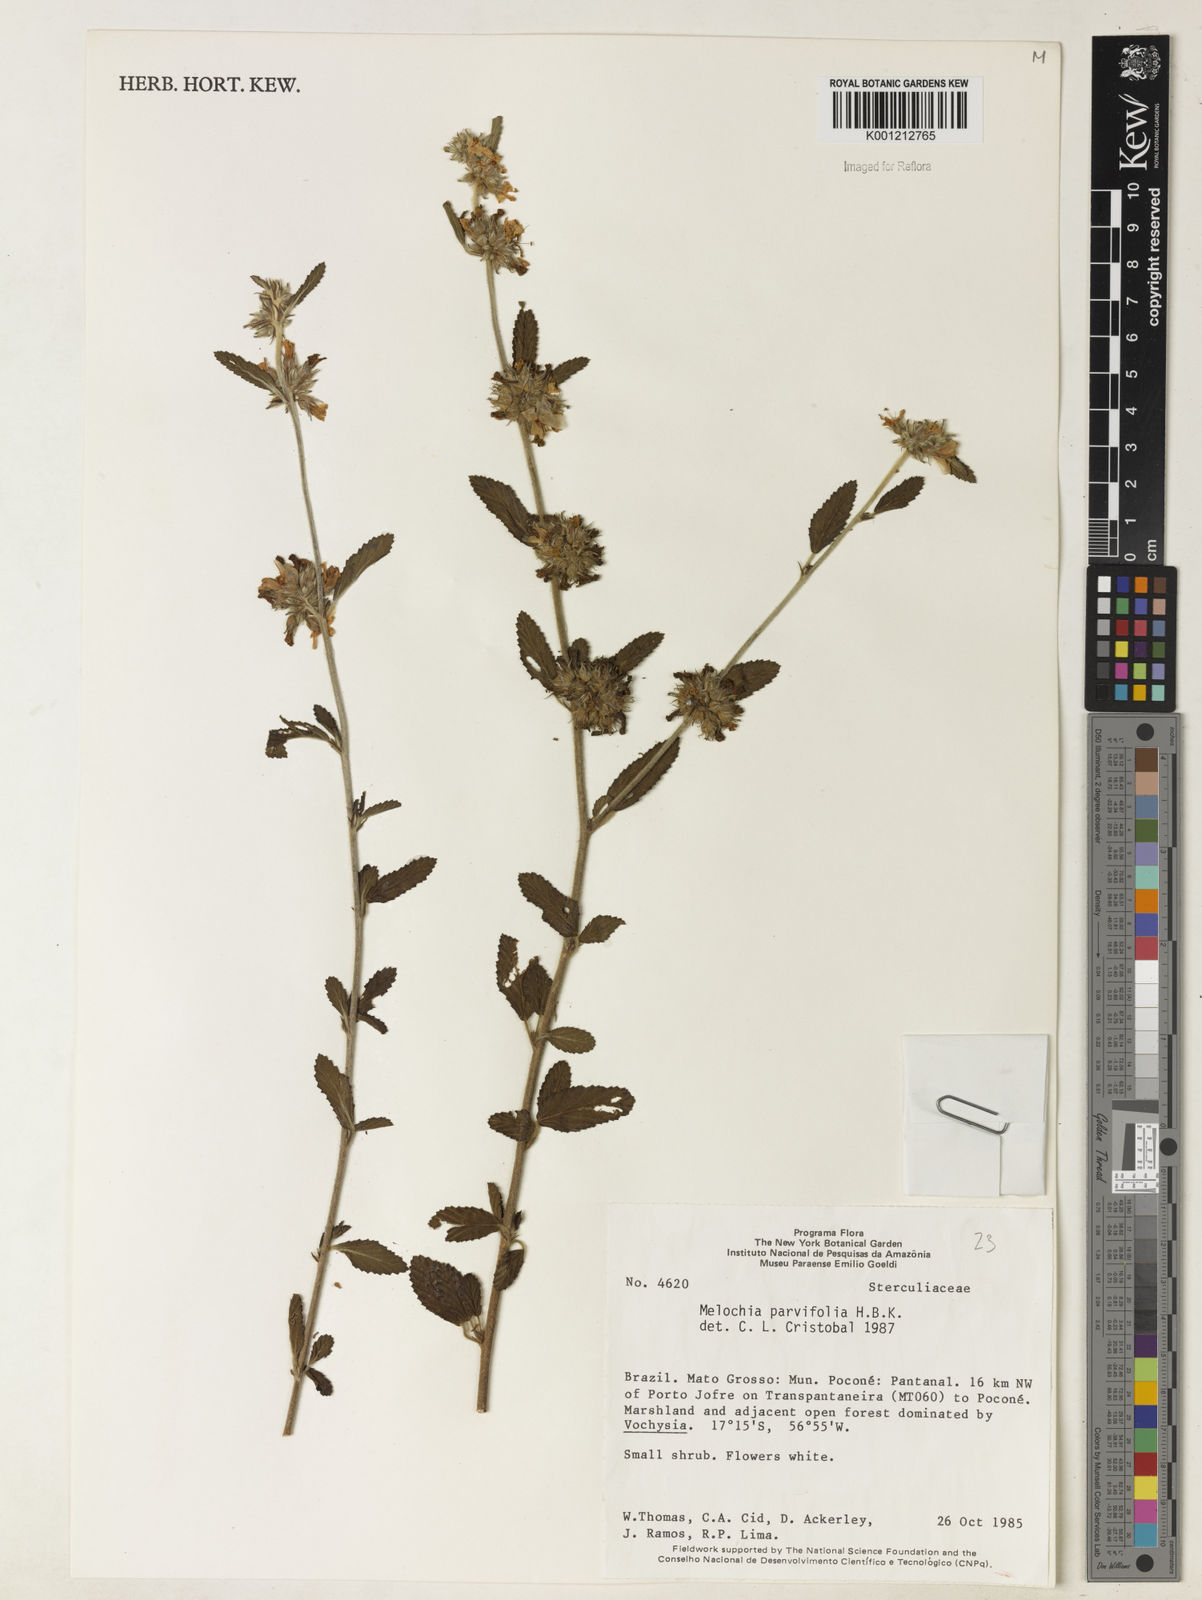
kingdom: Plantae
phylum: Tracheophyta
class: Magnoliopsida
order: Malvales
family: Malvaceae
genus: Melochia
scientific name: Melochia parvifolia
